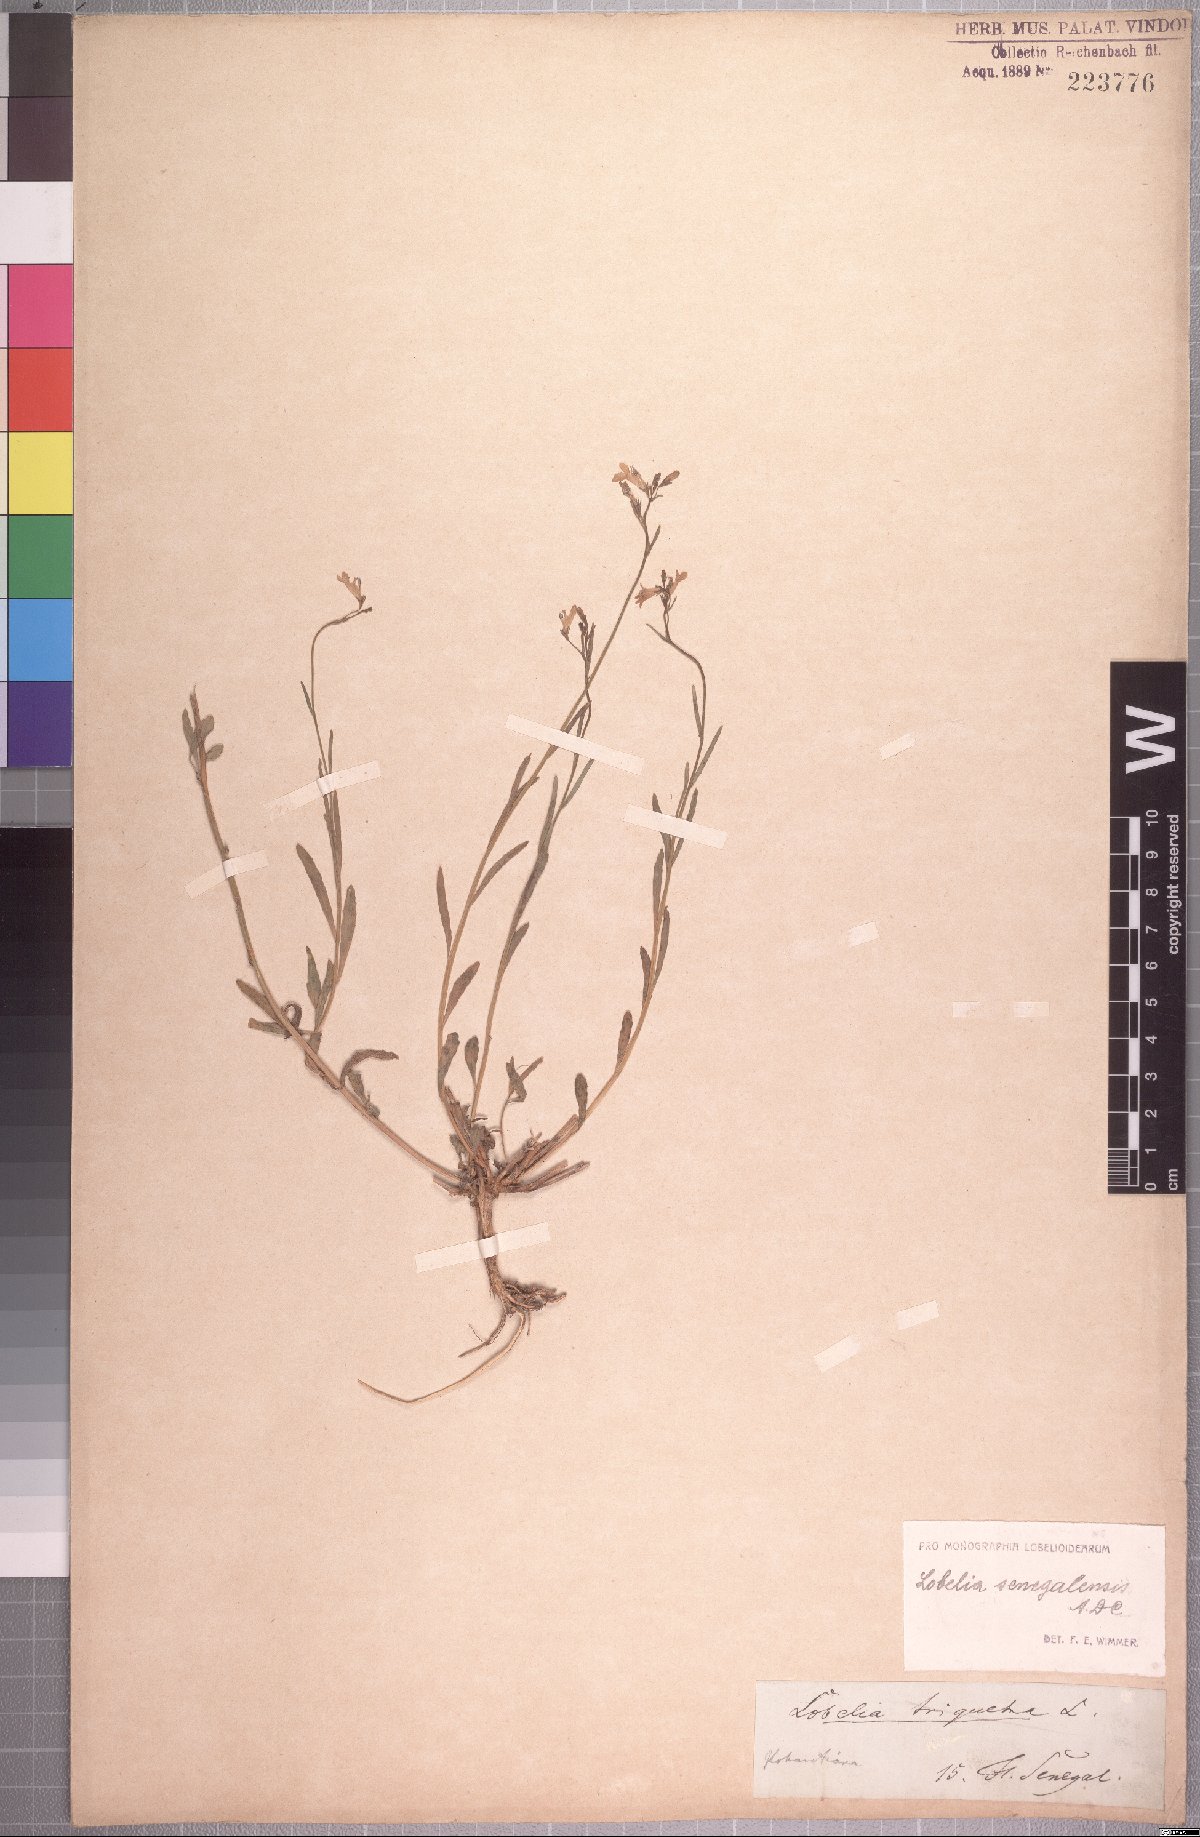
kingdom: Plantae
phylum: Tracheophyta
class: Magnoliopsida
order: Asterales
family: Campanulaceae
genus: Lobelia
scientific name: Lobelia erinus
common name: Edging lobelia
